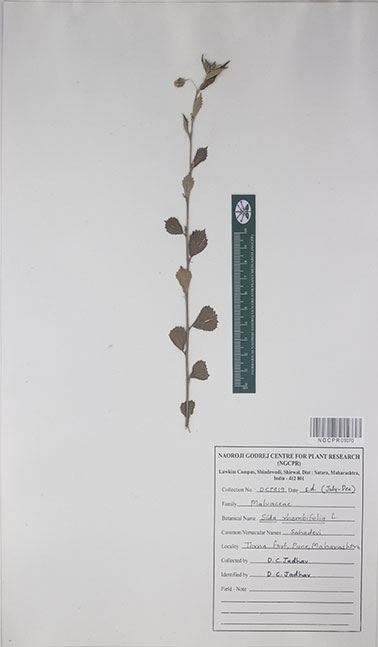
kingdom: Plantae
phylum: Tracheophyta
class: Magnoliopsida
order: Malvales
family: Malvaceae
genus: Sida
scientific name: Sida rhombifolia
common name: Queensland-hemp
